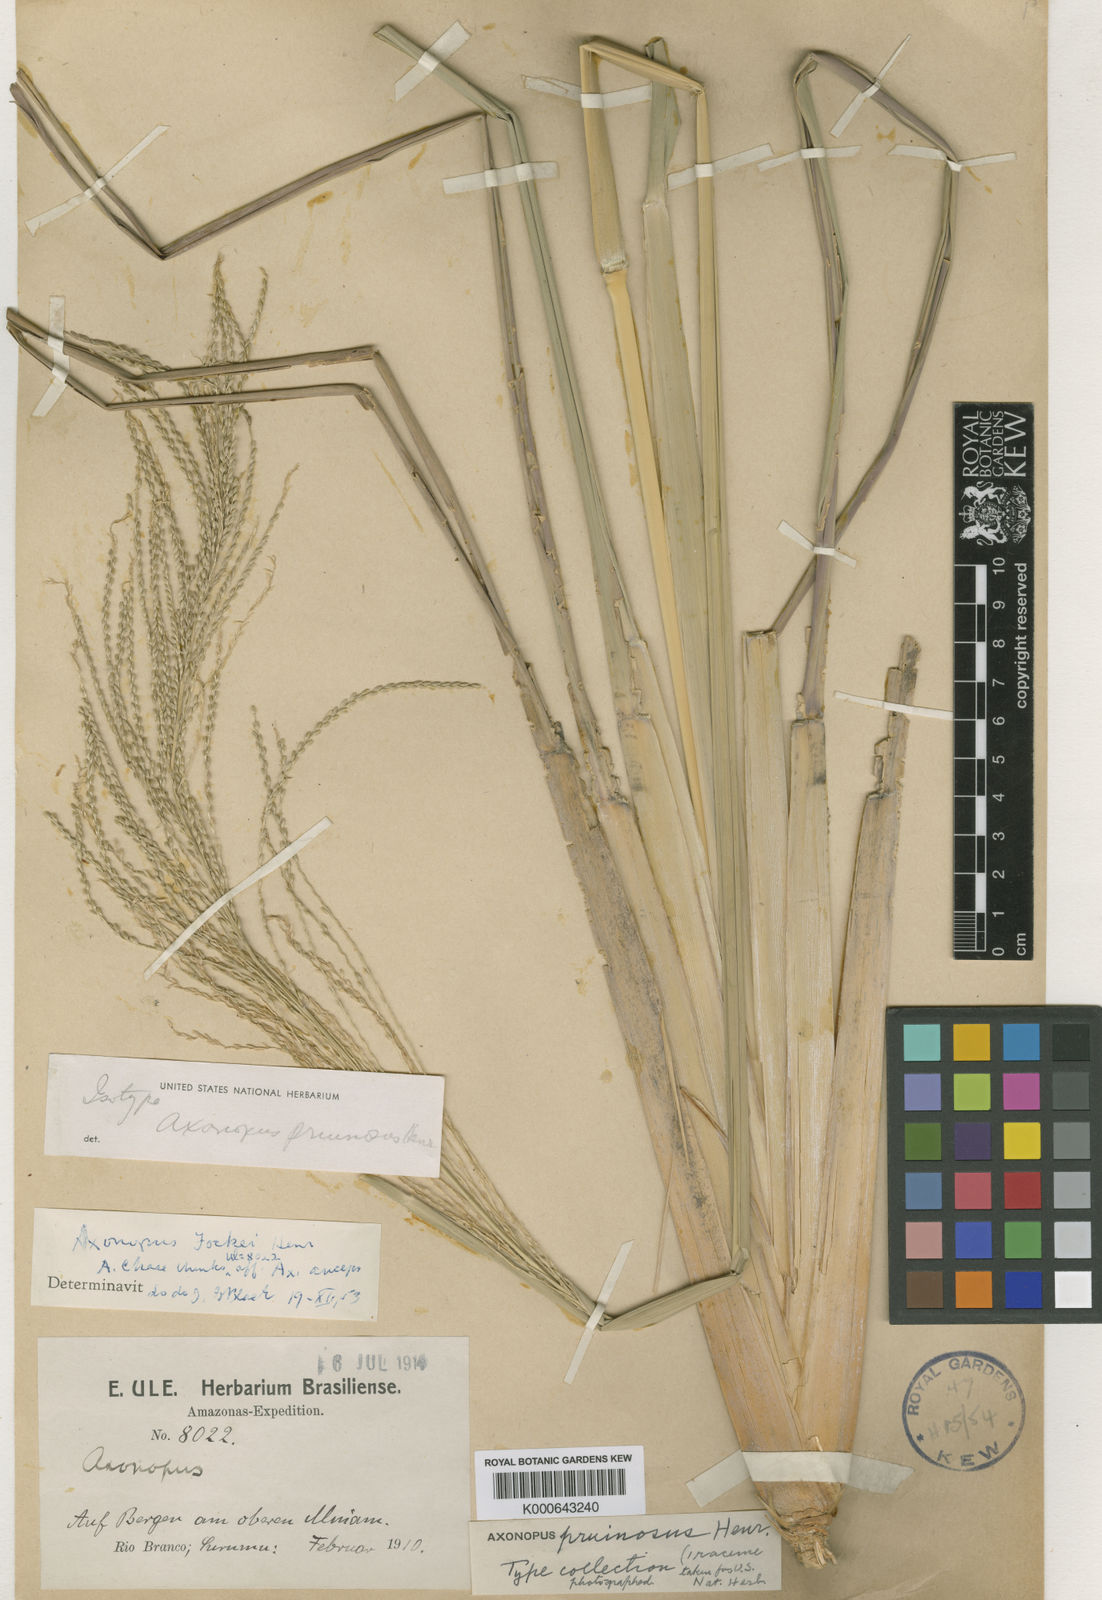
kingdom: Plantae
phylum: Tracheophyta
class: Liliopsida
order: Poales
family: Poaceae
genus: Axonopus
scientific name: Axonopus anceps
